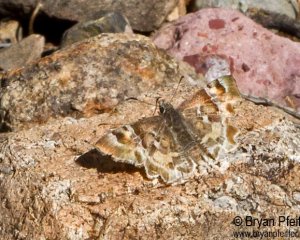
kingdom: Animalia
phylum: Arthropoda
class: Insecta
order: Lepidoptera
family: Hesperiidae
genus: Systasea
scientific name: Systasea zampa
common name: Arizona Powdered-Skipper
